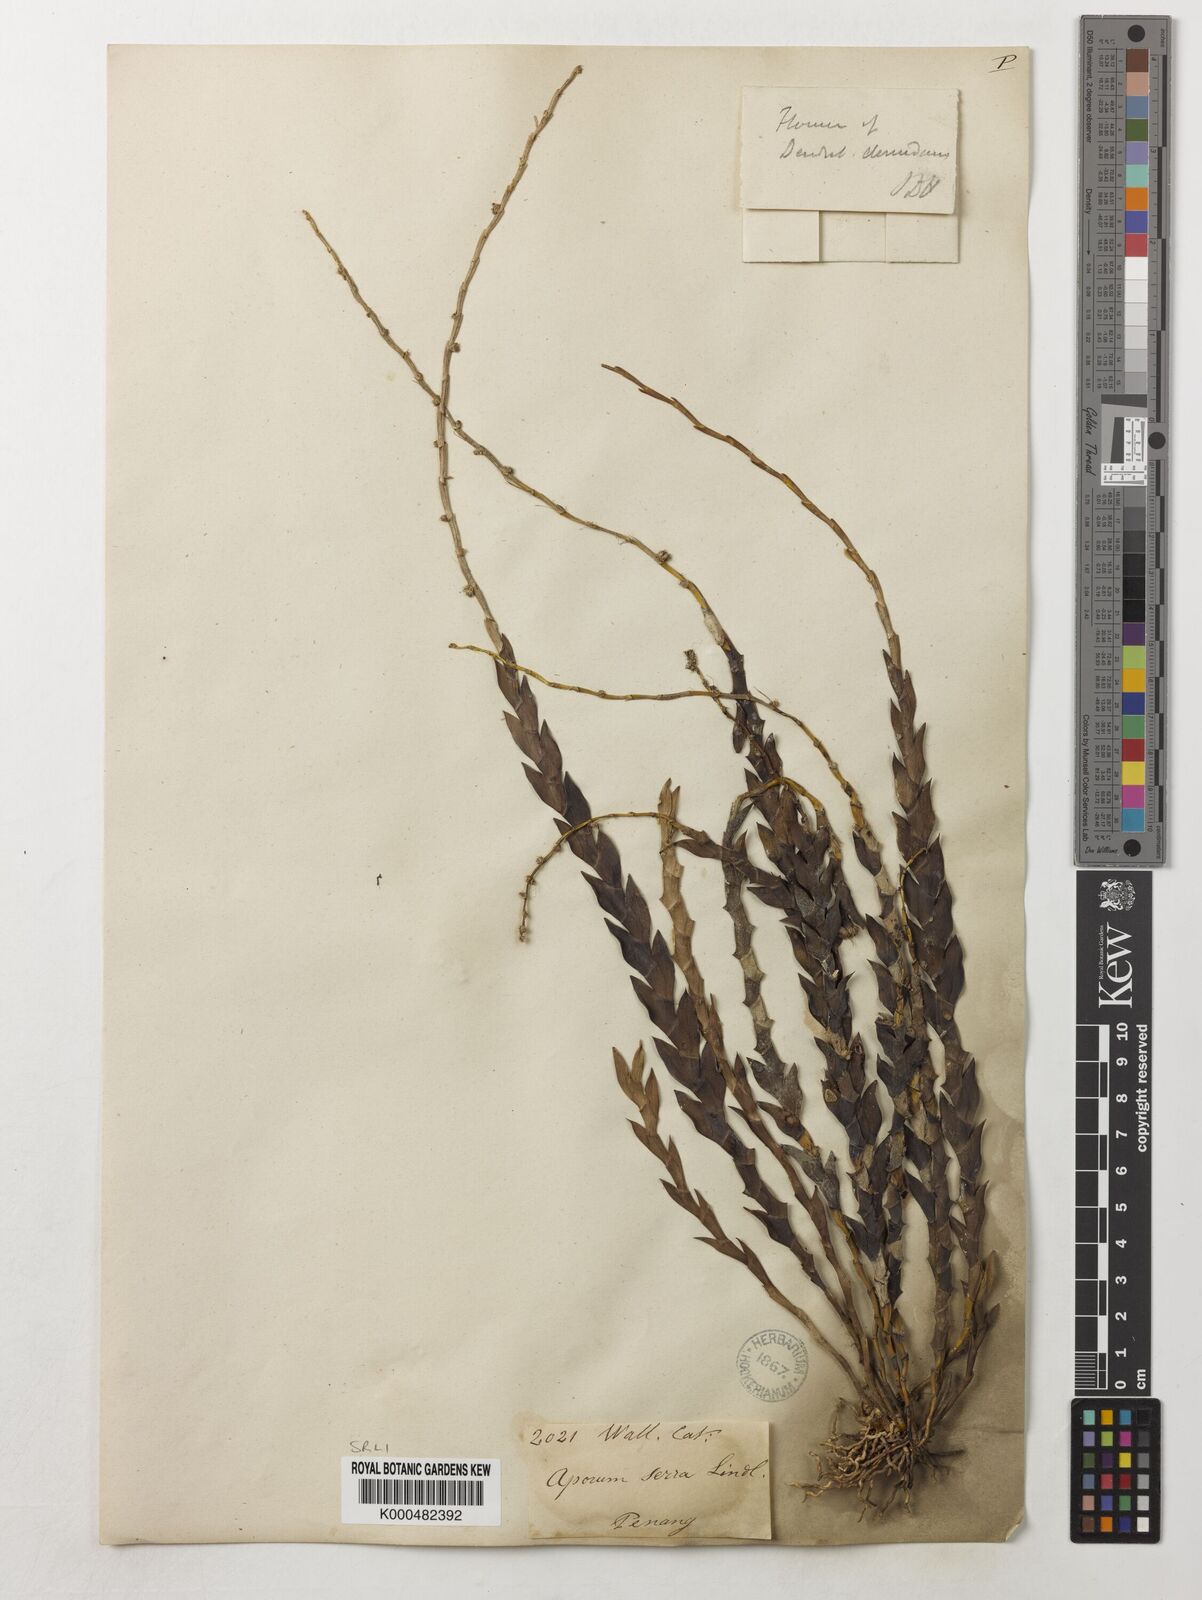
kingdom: Plantae
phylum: Tracheophyta
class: Liliopsida
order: Asparagales
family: Orchidaceae
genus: Dendrobium
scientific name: Dendrobium aloifolium
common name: Aloe-like dendrobium
